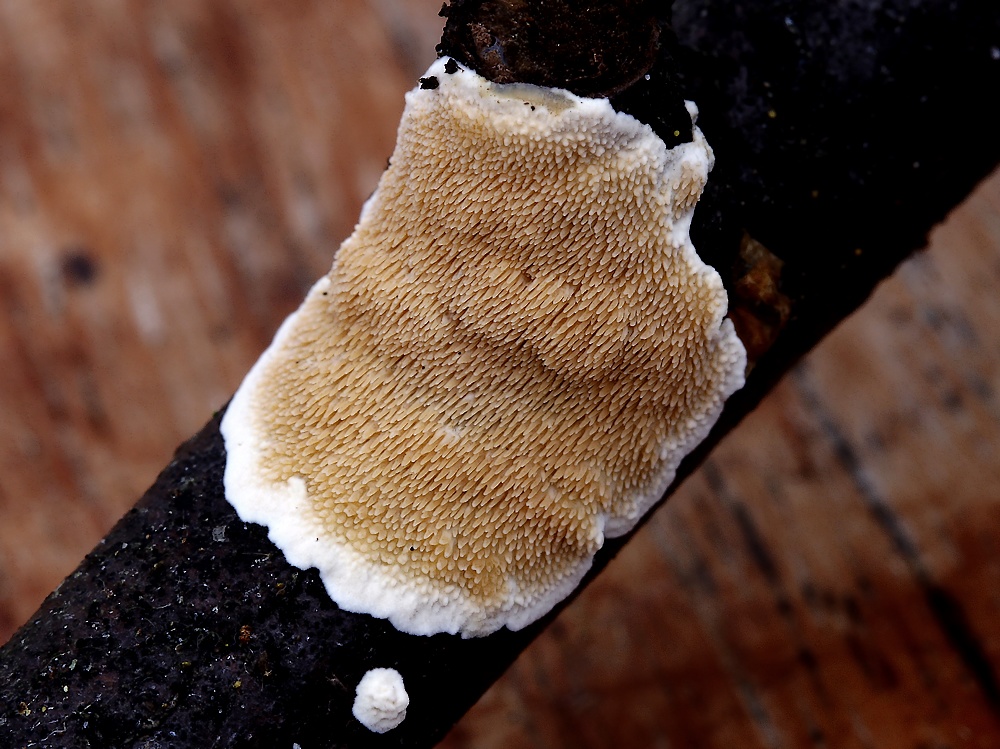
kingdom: Fungi
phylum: Basidiomycota
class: Agaricomycetes
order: Polyporales
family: Steccherinaceae
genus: Steccherinum
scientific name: Steccherinum ochraceum
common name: almindelig skønpig
